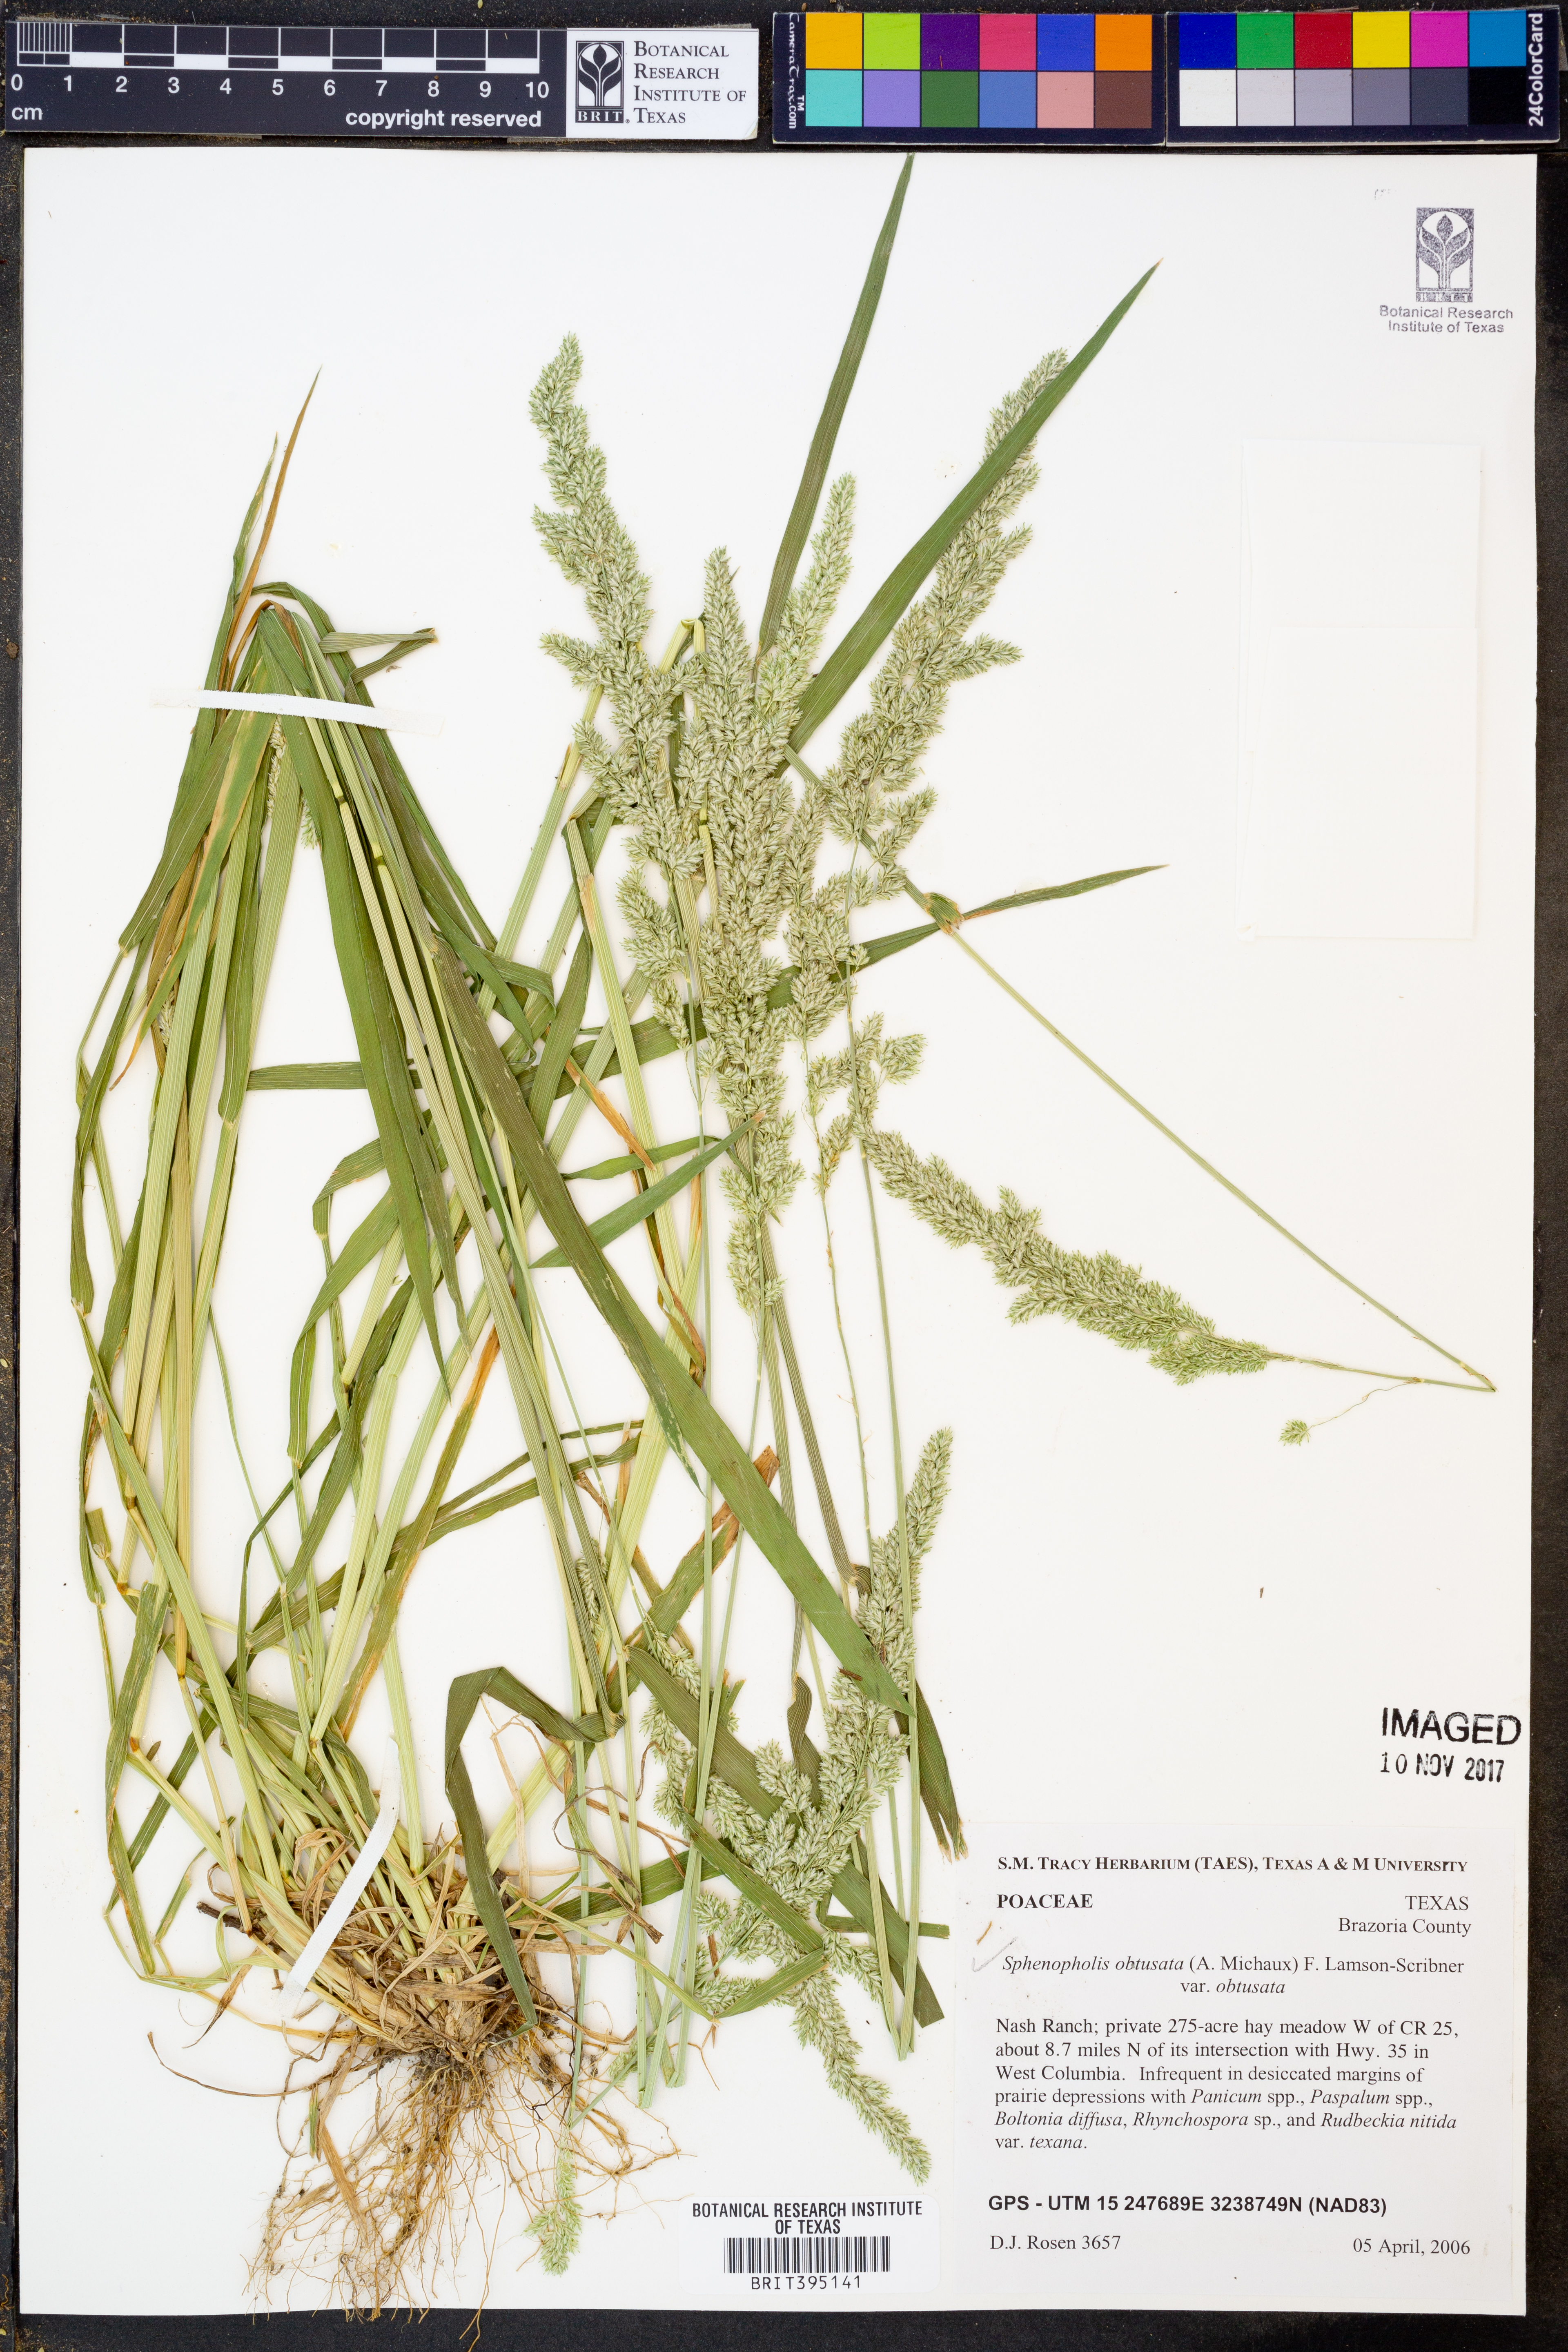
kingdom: Plantae
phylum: Tracheophyta
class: Liliopsida
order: Poales
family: Poaceae
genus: Sphenopholis
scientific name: Sphenopholis obtusata
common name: Prairie grass
